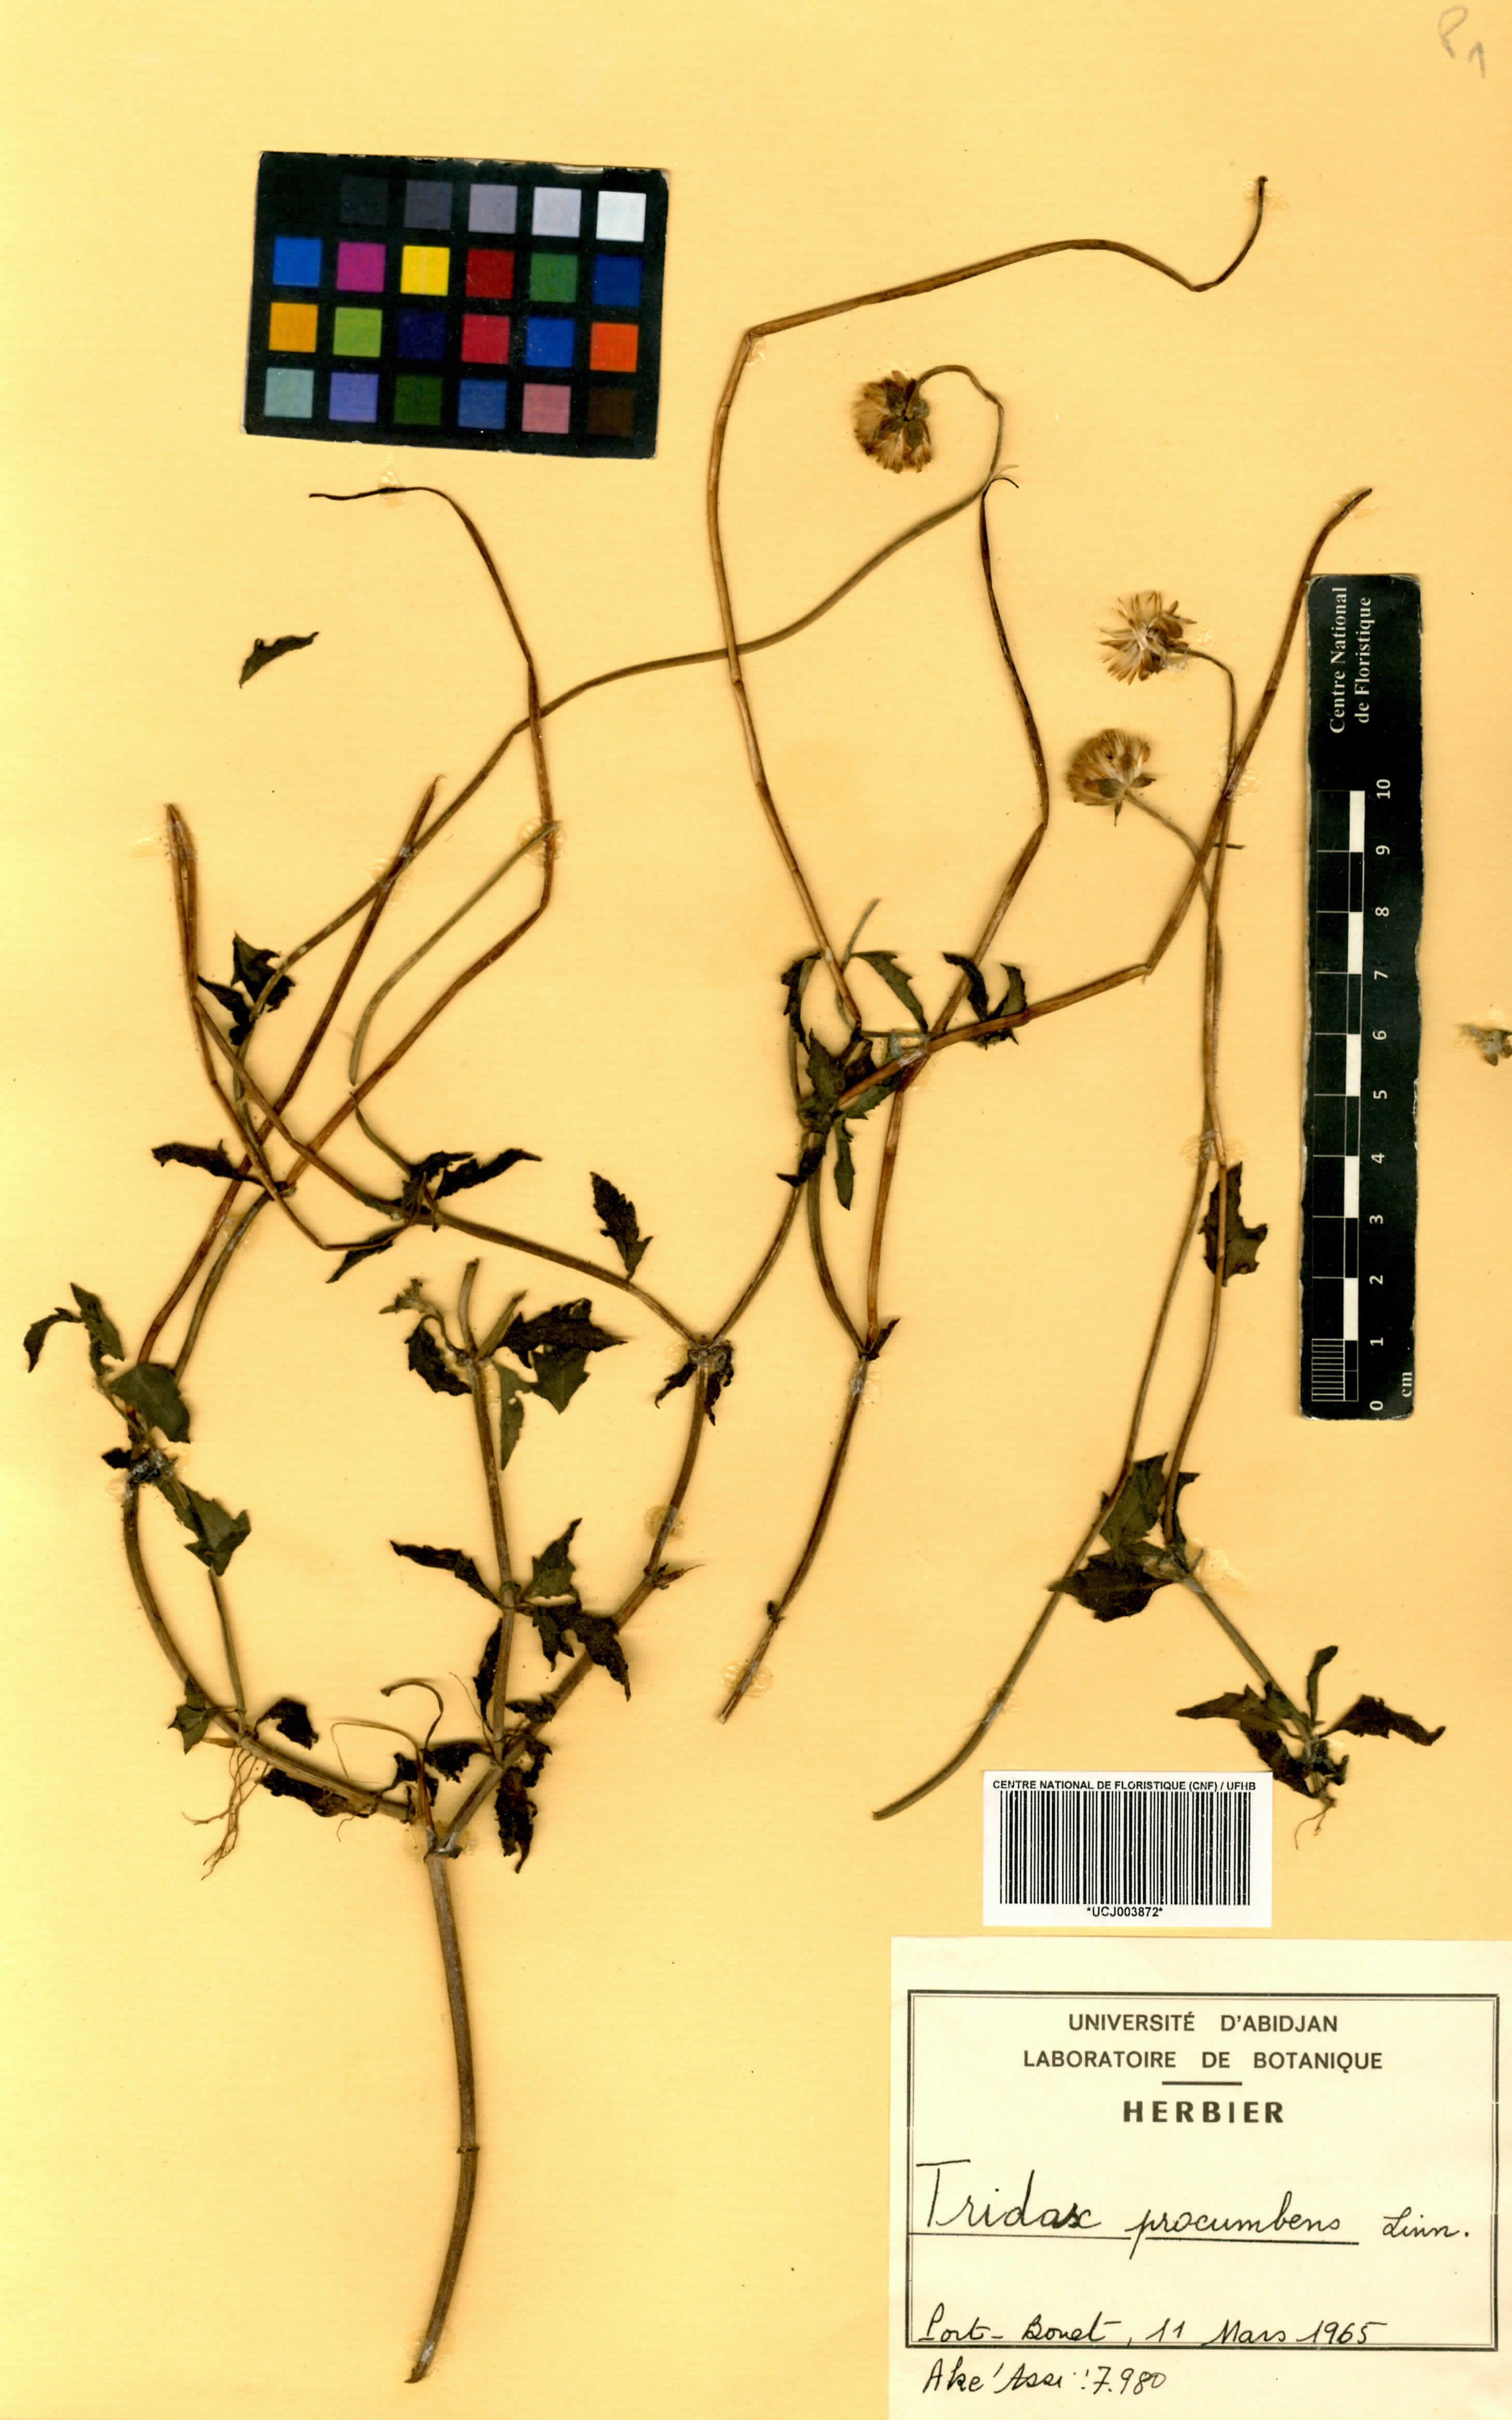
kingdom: Plantae
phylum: Tracheophyta
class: Magnoliopsida
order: Asterales
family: Asteraceae
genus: Tridax
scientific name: Tridax procumbens
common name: Coatbuttons
